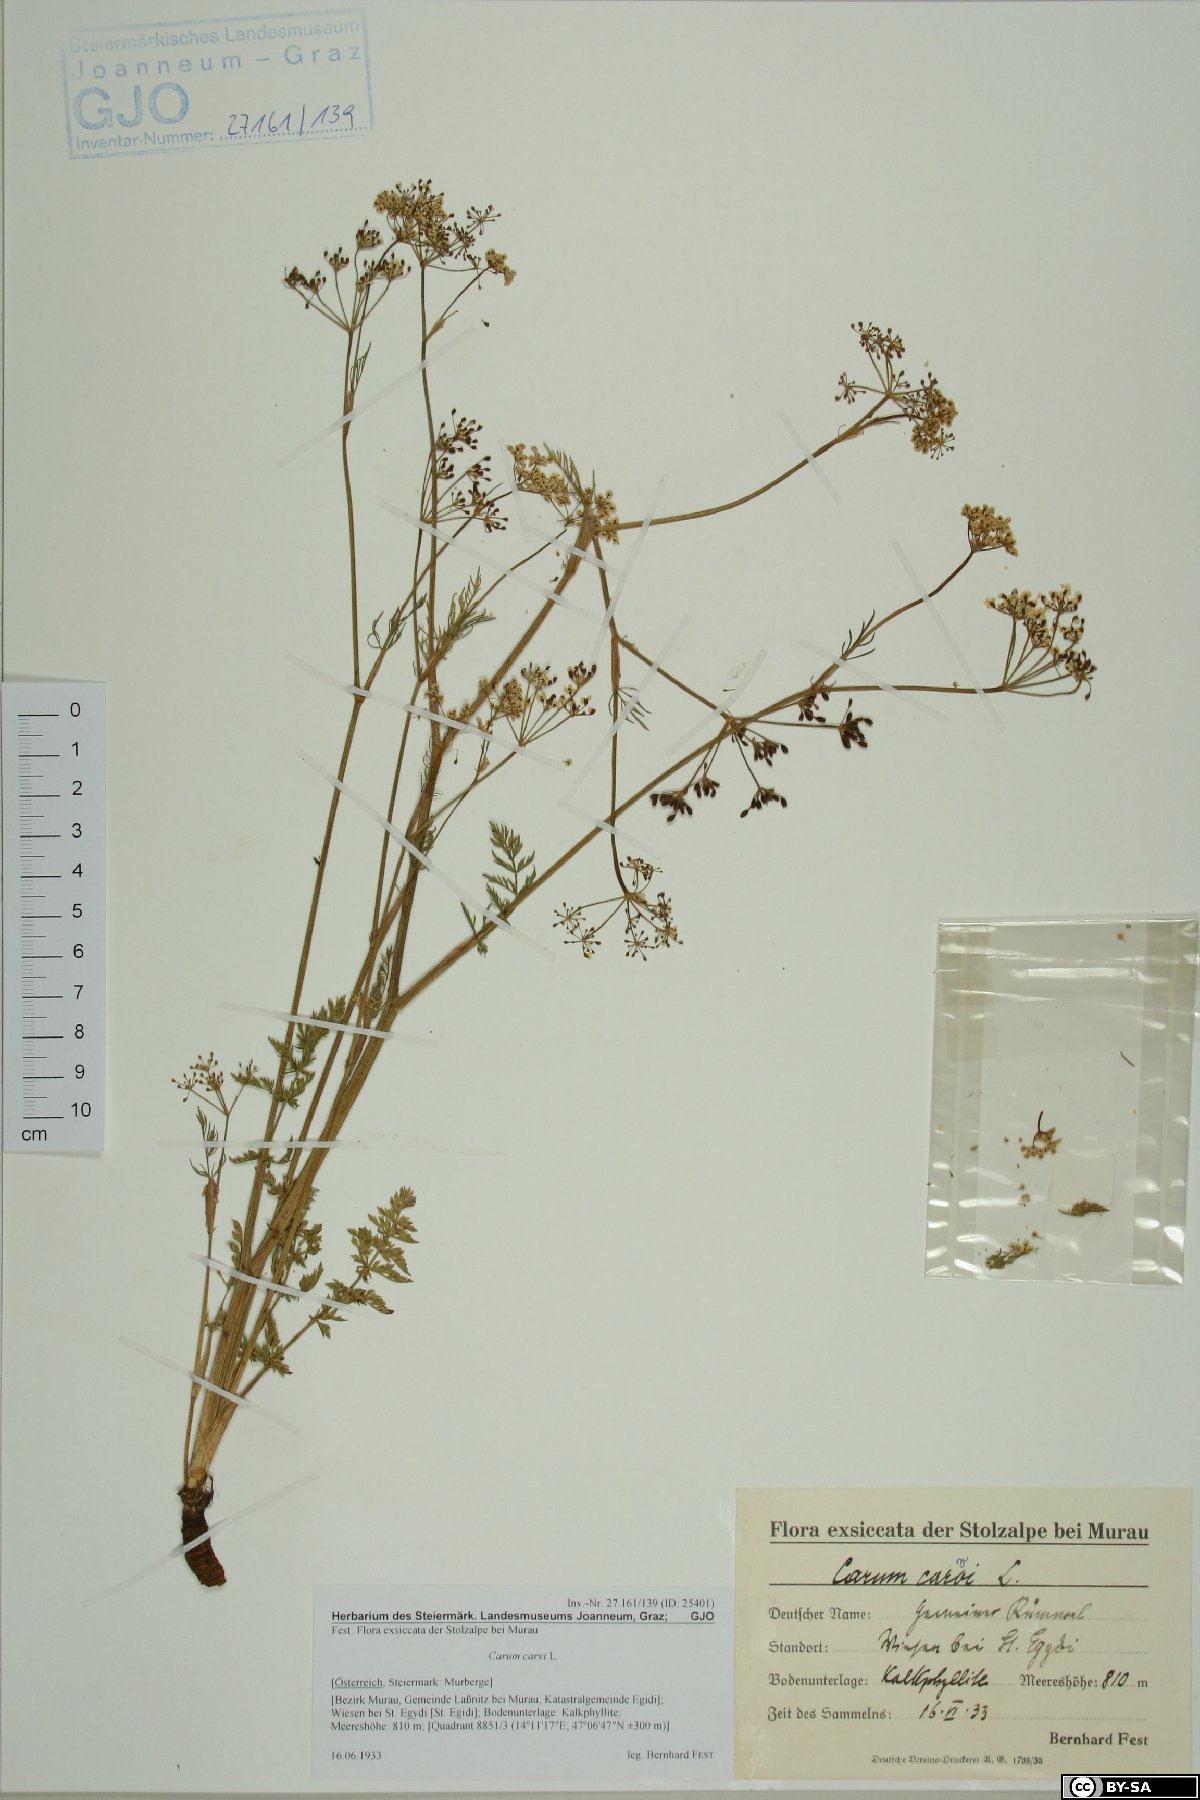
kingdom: Plantae
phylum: Tracheophyta
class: Magnoliopsida
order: Apiales
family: Apiaceae
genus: Carum
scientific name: Carum carvi
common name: Caraway
